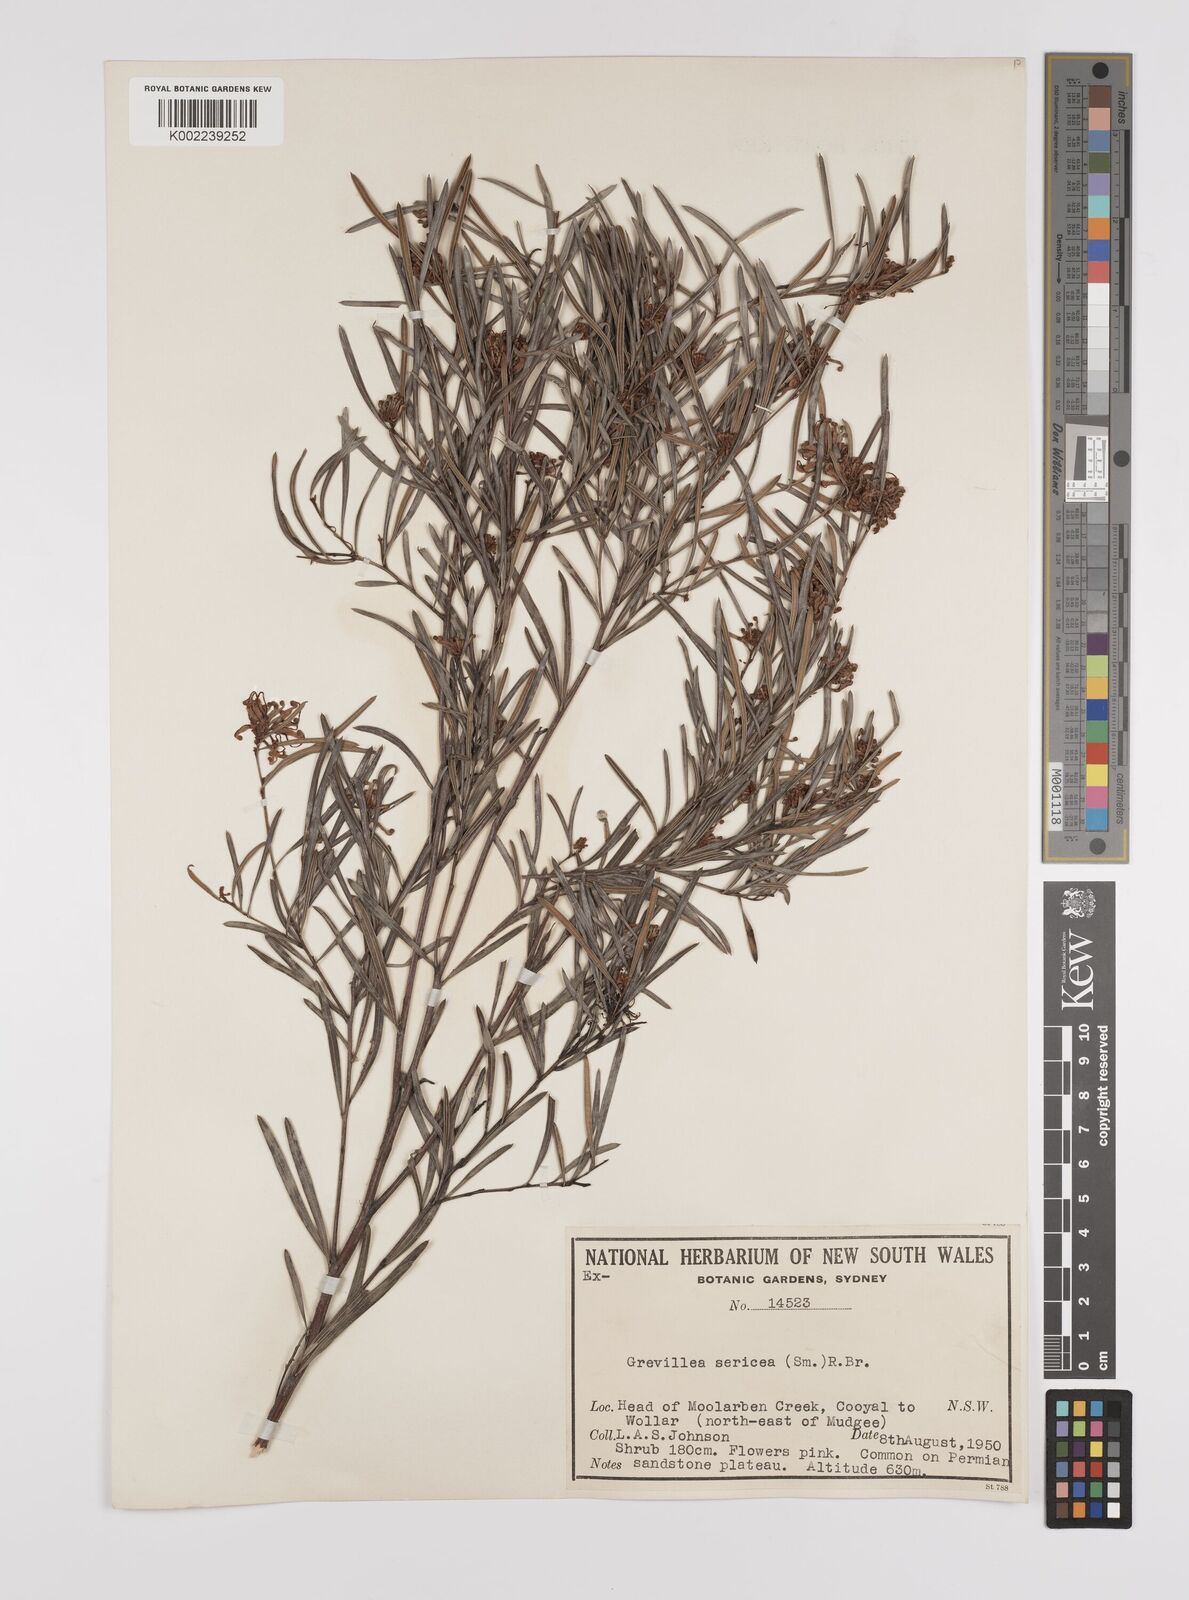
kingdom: Plantae
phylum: Tracheophyta
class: Magnoliopsida
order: Proteales
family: Proteaceae
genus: Grevillea
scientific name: Grevillea sericea
